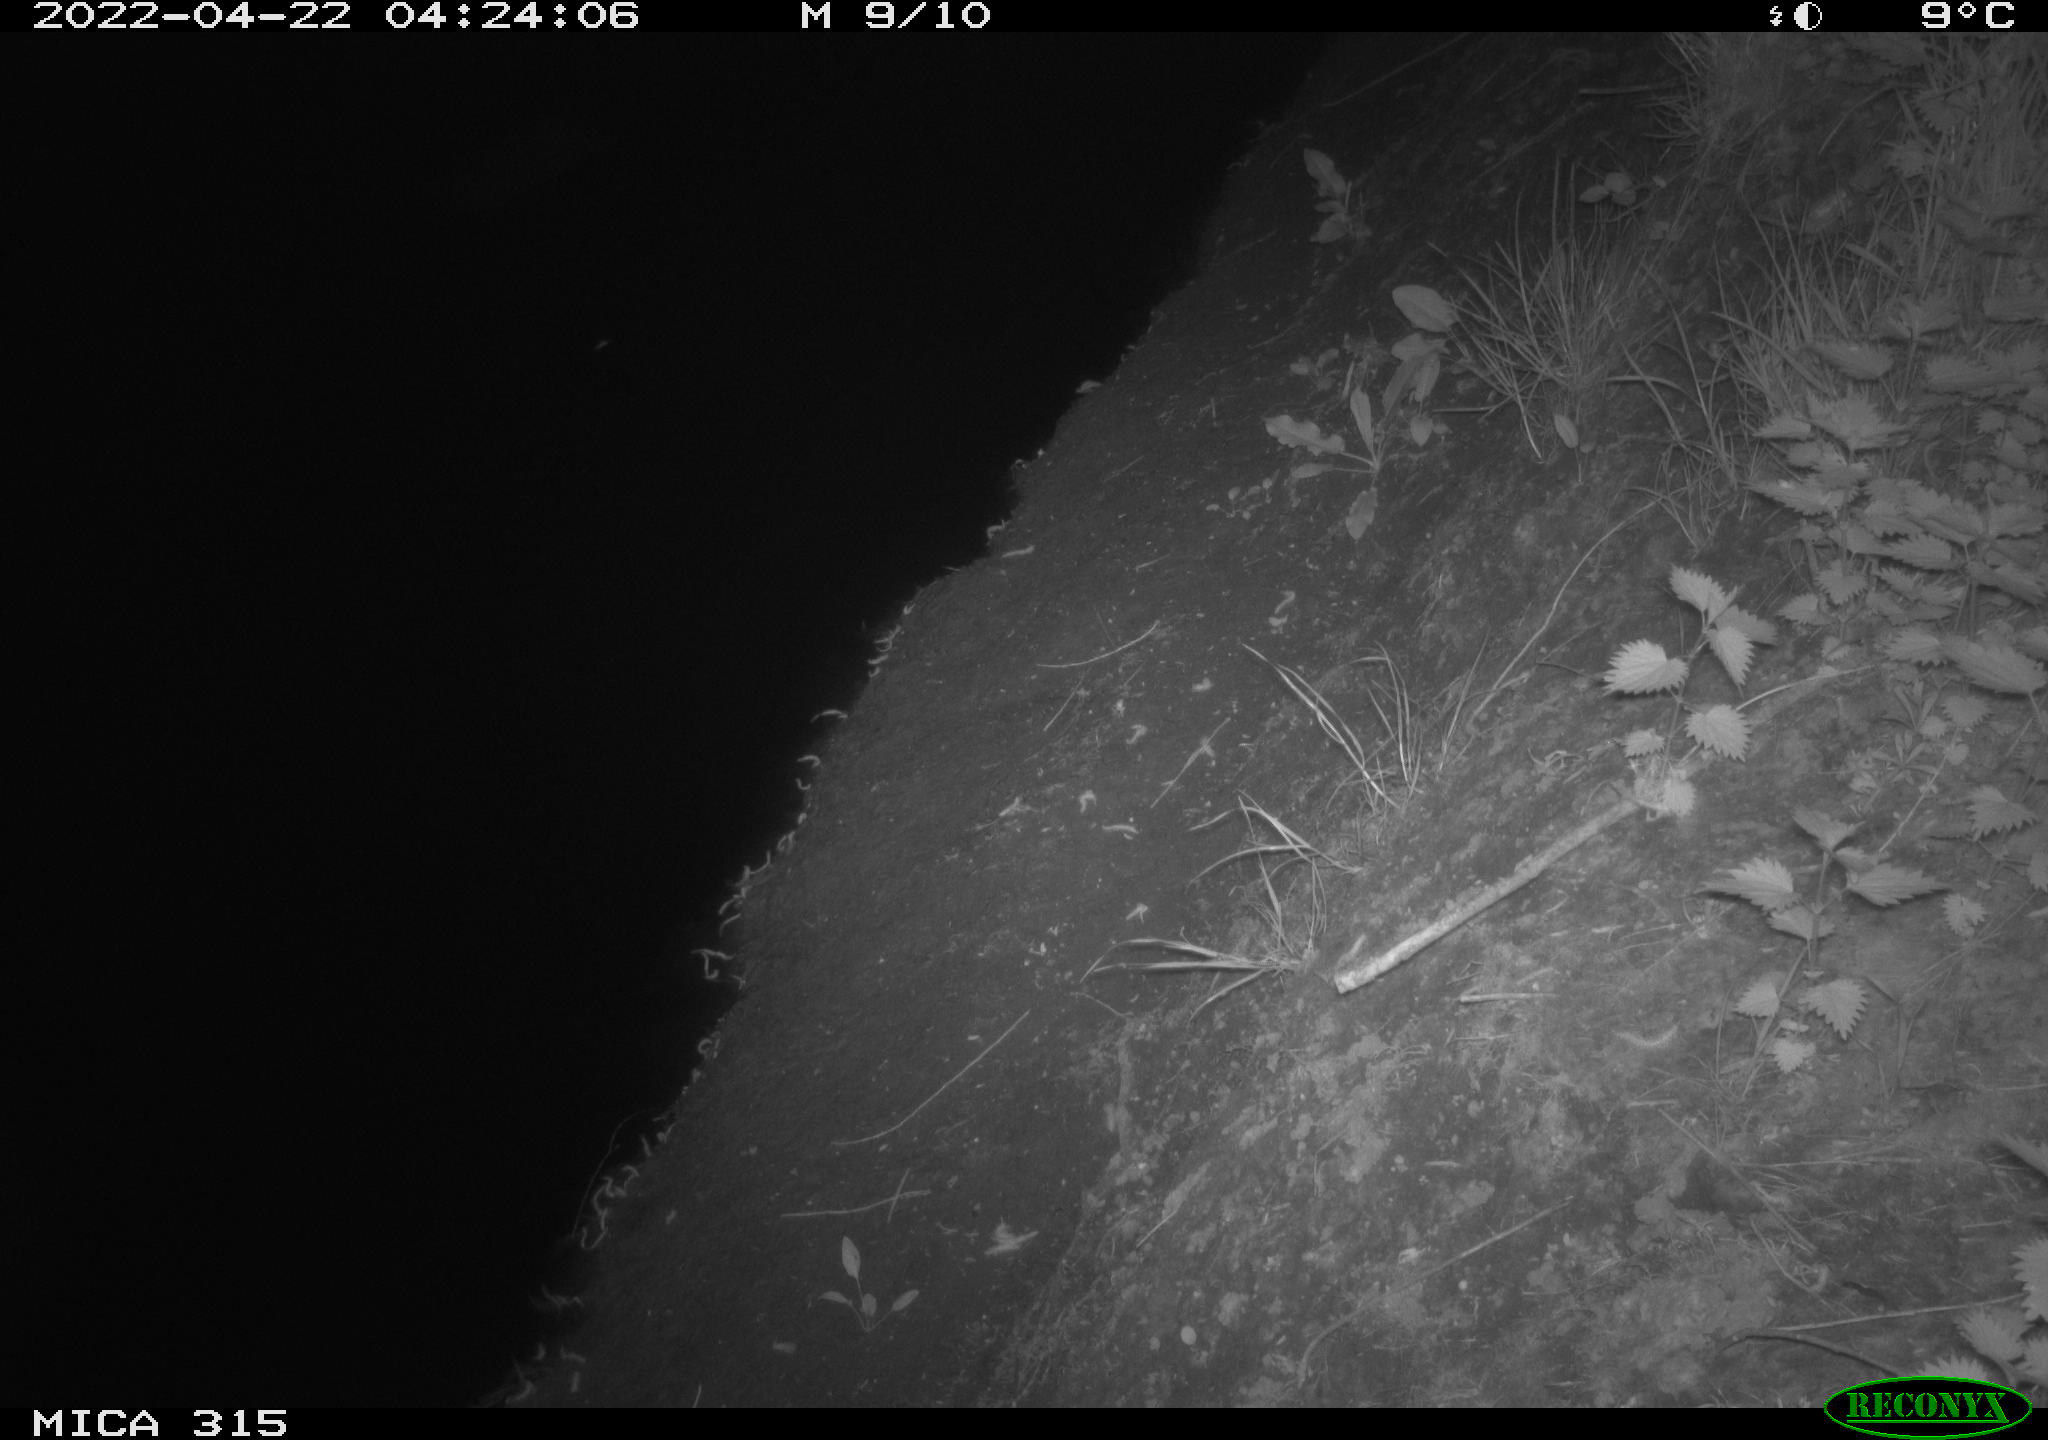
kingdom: Animalia
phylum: Chordata
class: Aves
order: Anseriformes
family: Anatidae
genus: Anas
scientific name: Anas platyrhynchos
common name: Mallard
